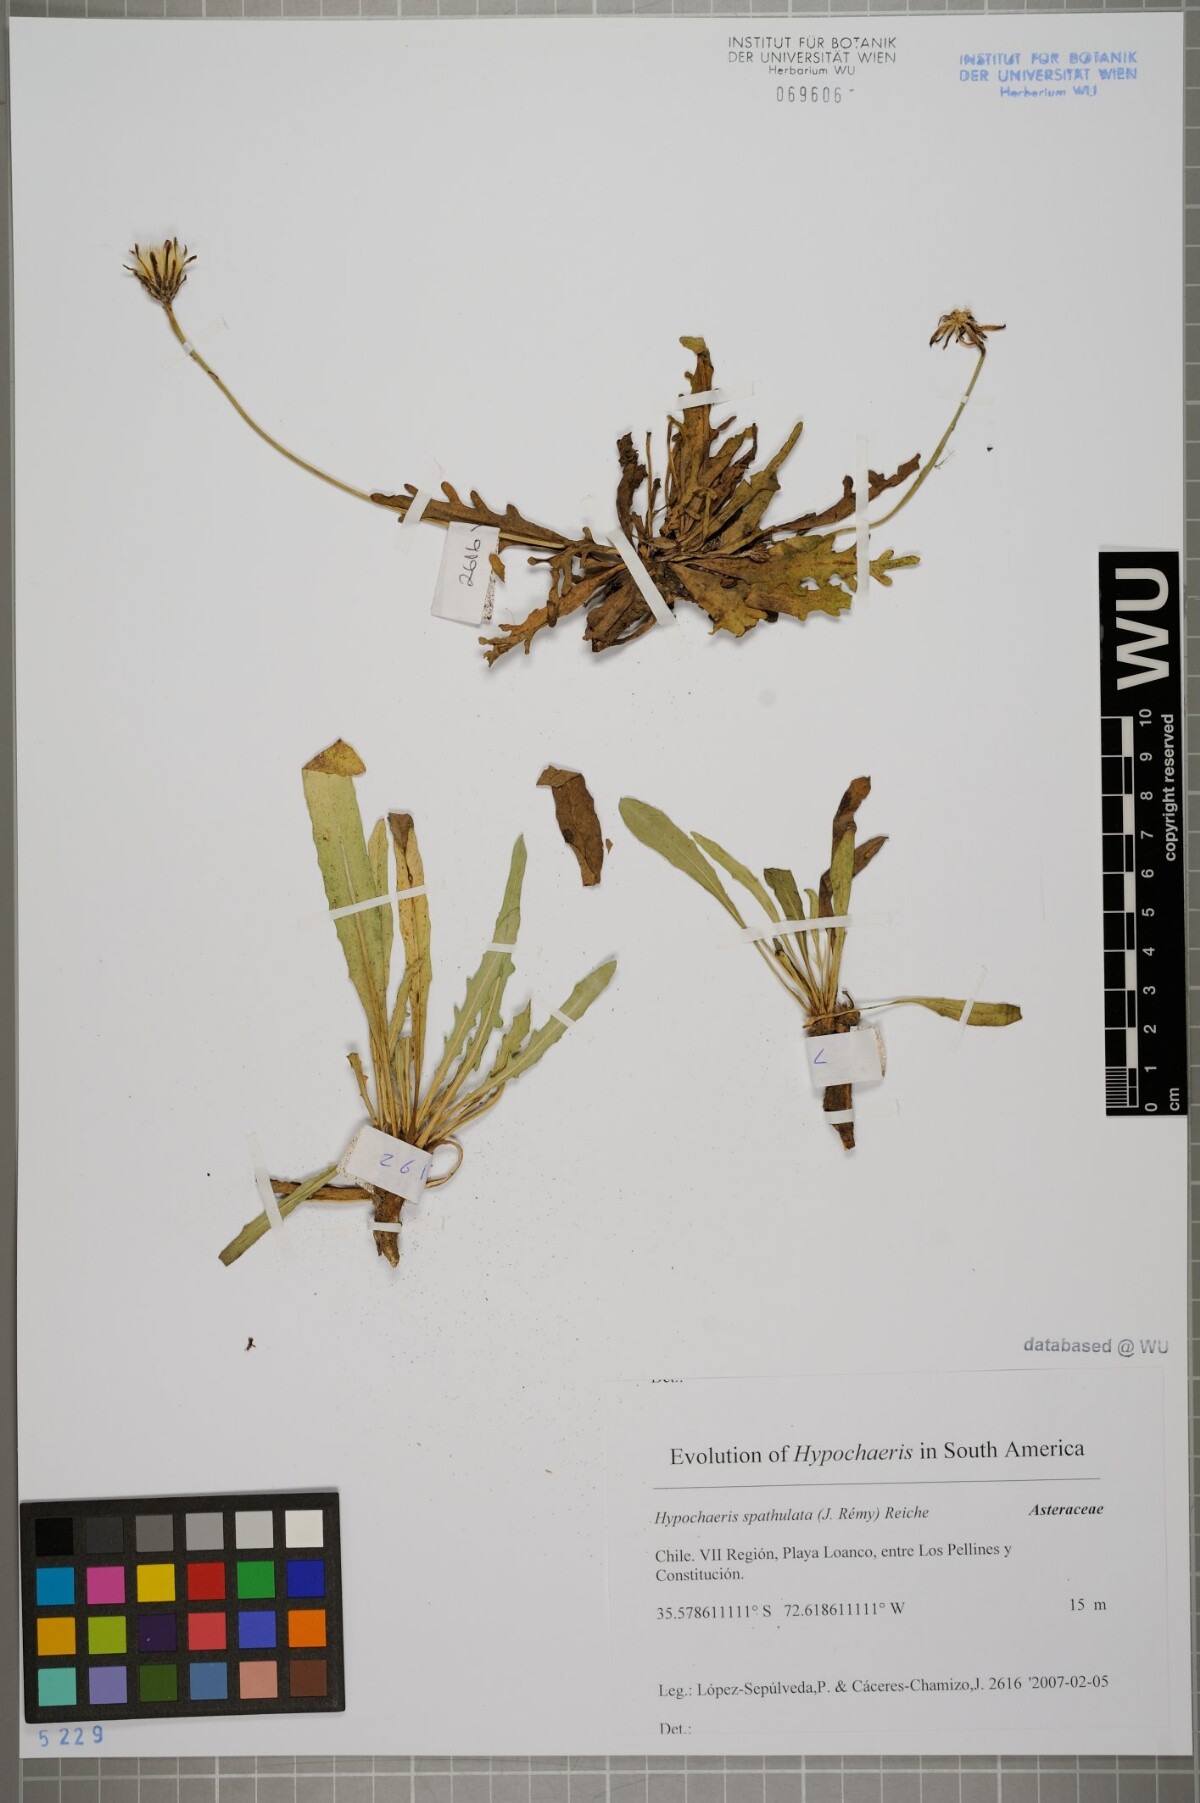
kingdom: Plantae
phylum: Tracheophyta
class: Magnoliopsida
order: Asterales
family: Asteraceae
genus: Hypochaeris
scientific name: Hypochaeris spathulata
